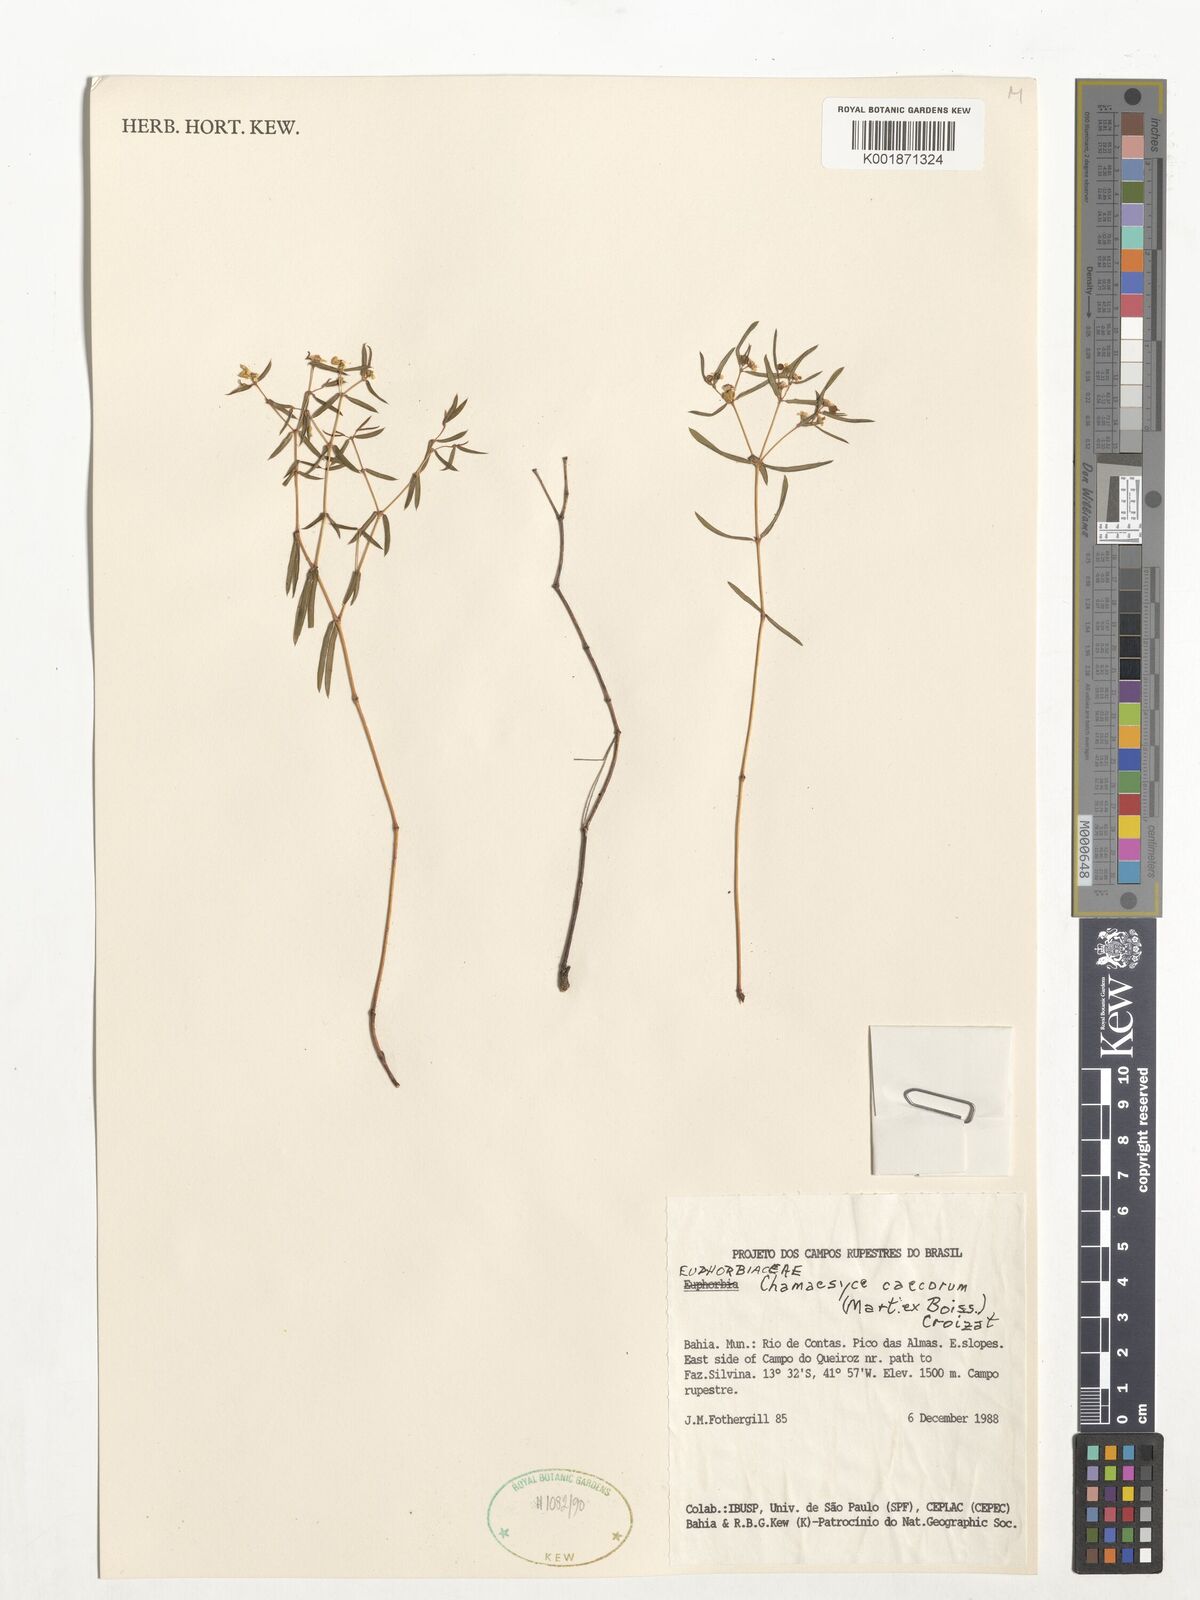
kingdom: Plantae
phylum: Tracheophyta
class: Magnoliopsida
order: Malpighiales
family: Euphorbiaceae
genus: Euphorbia
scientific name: Euphorbia potentilloides
